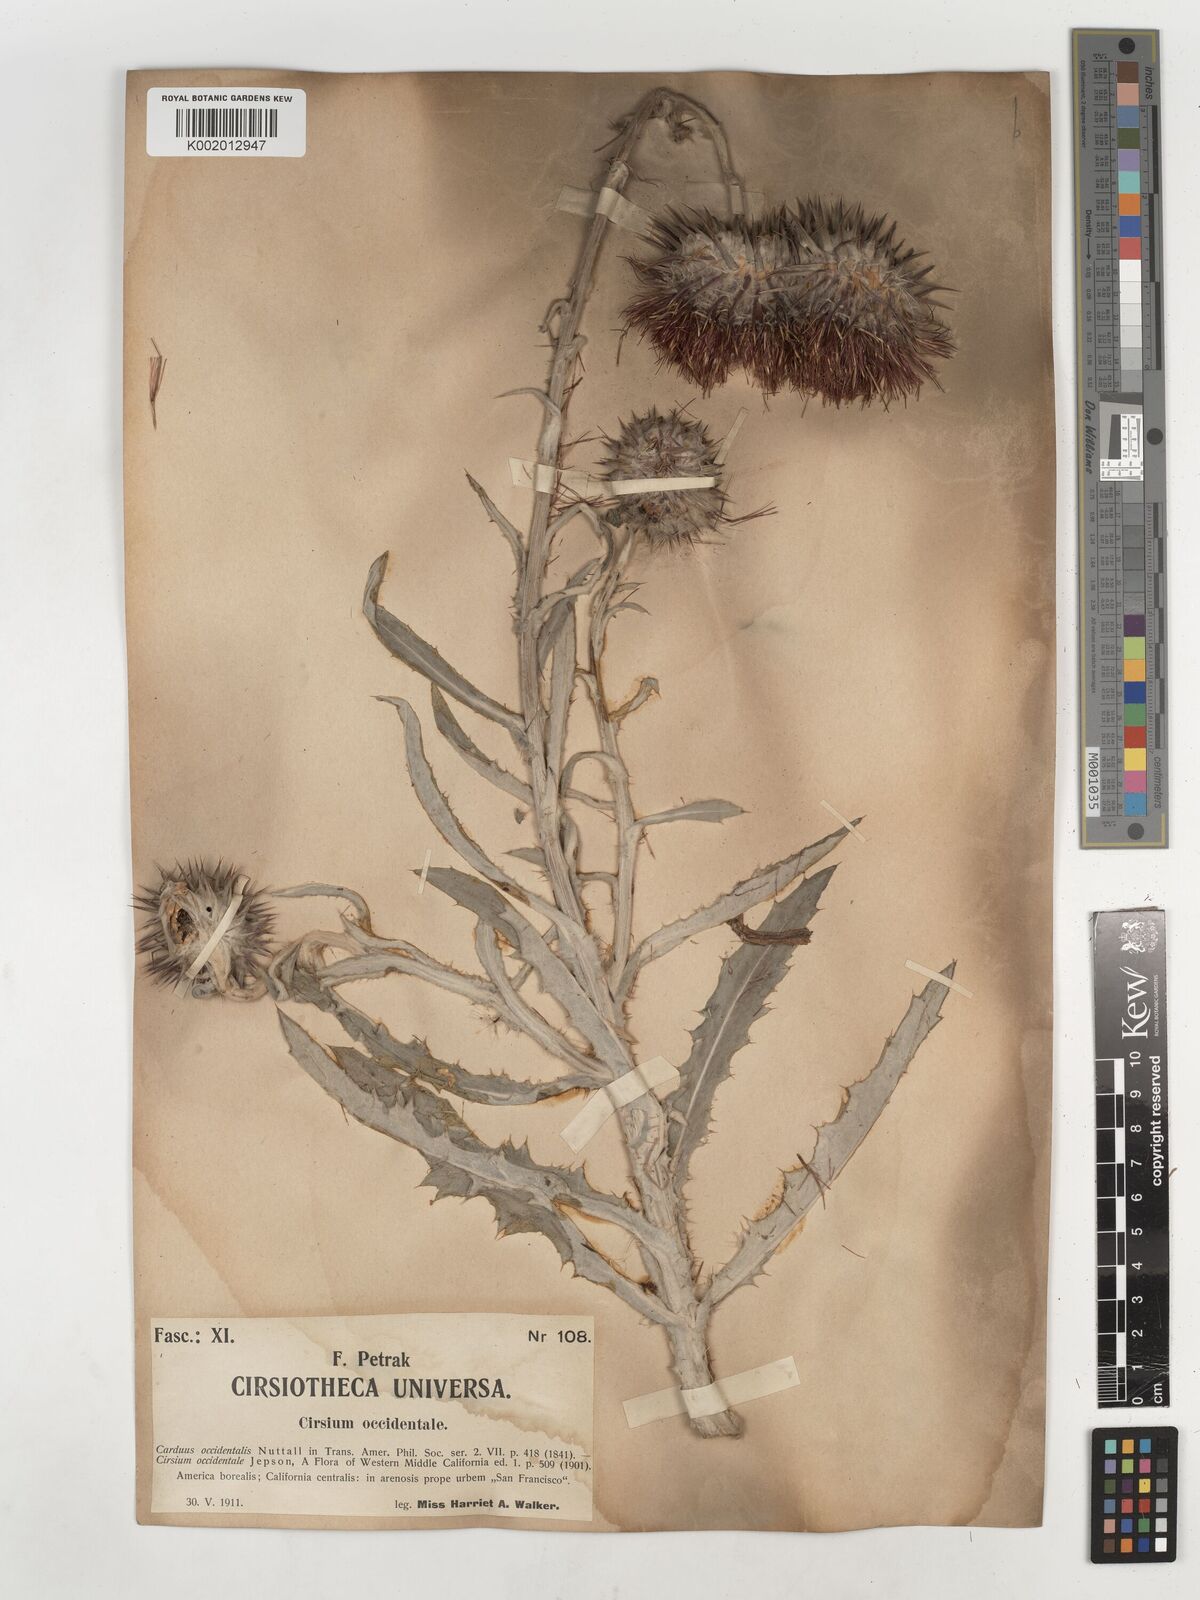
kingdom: Plantae
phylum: Tracheophyta
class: Magnoliopsida
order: Asterales
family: Asteraceae
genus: Cirsium
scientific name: Cirsium occidentale
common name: Western thistle
